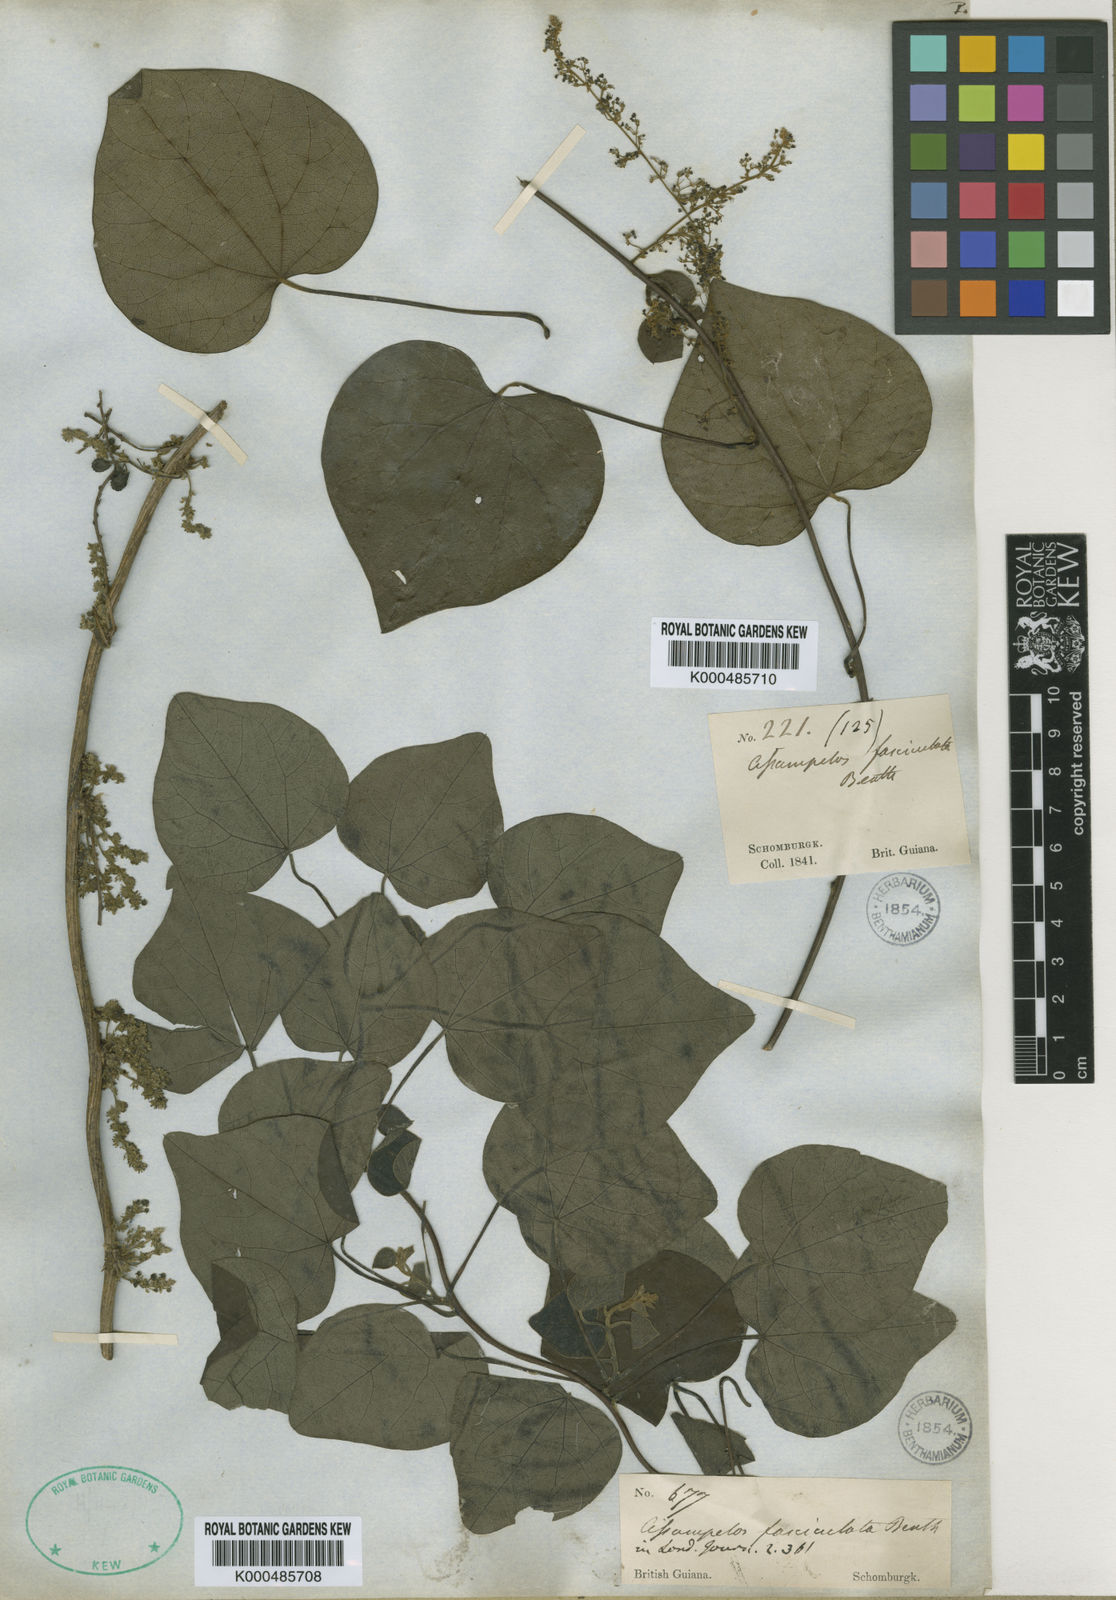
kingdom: Plantae
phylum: Tracheophyta
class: Magnoliopsida
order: Ranunculales
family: Menispermaceae
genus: Cissampelos
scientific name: Cissampelos fasciculata
